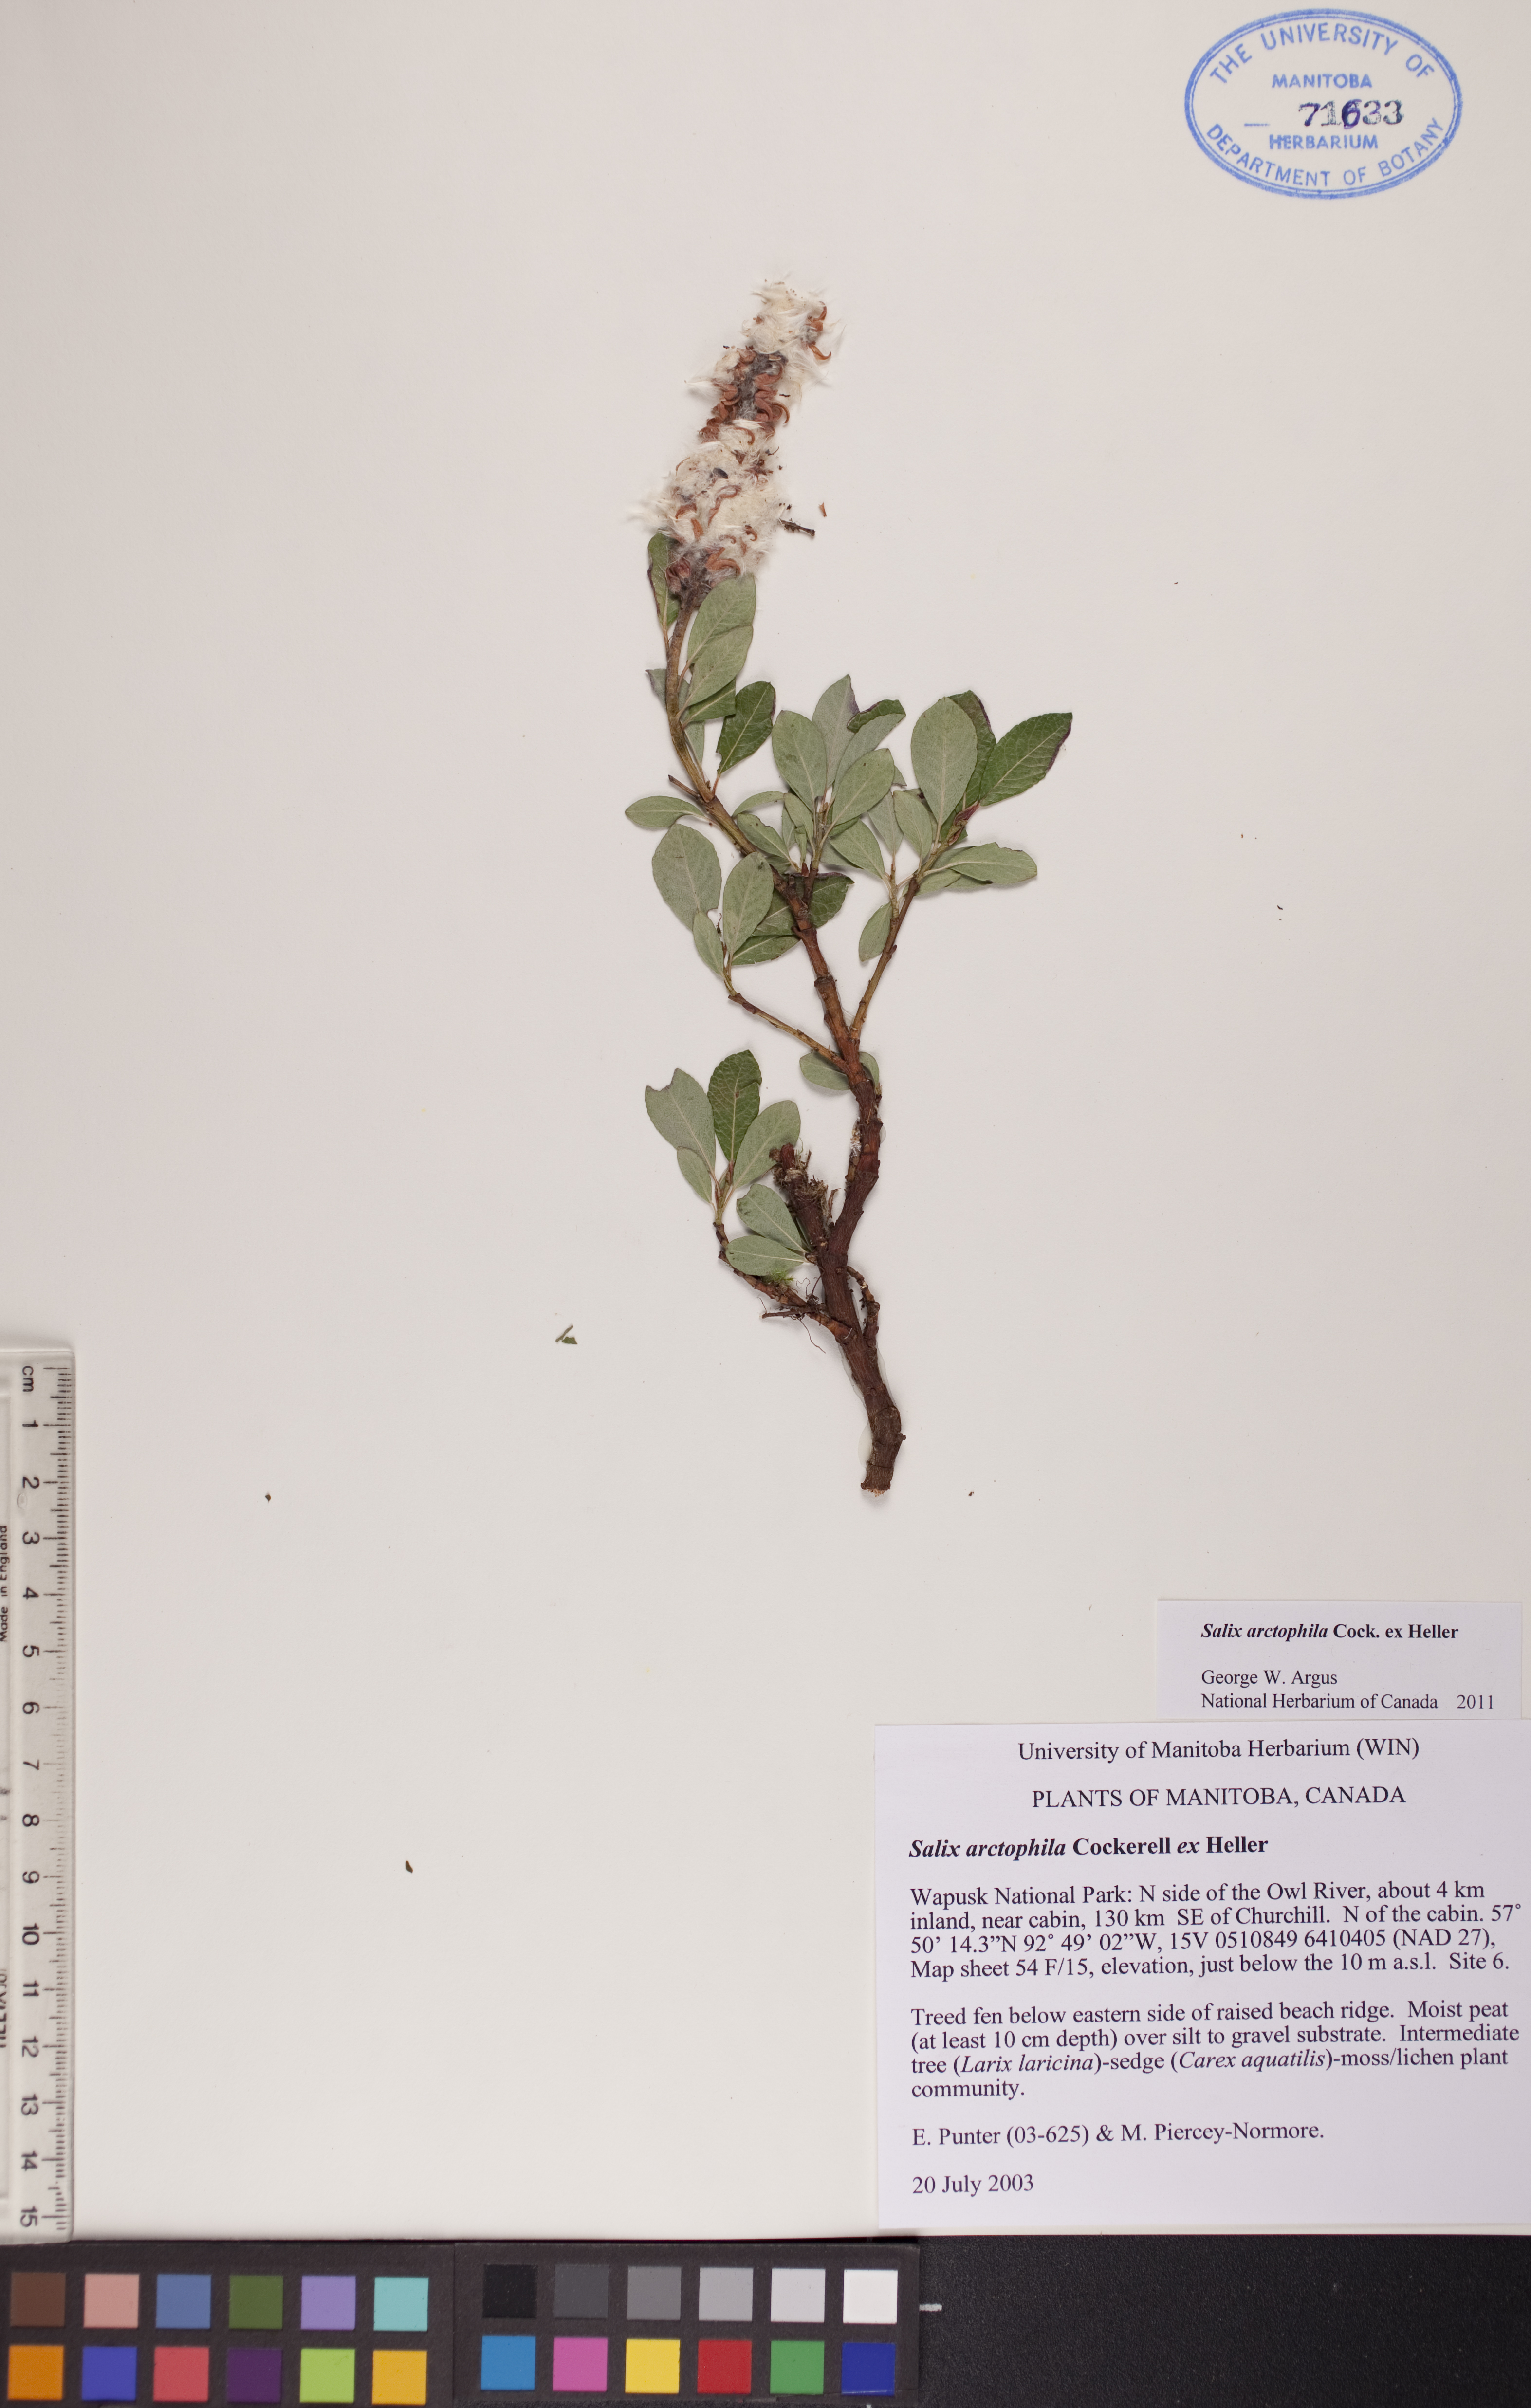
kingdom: Plantae
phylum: Tracheophyta
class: Magnoliopsida
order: Malpighiales
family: Salicaceae
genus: Salix
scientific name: Salix arctophila
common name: Greenland willow
